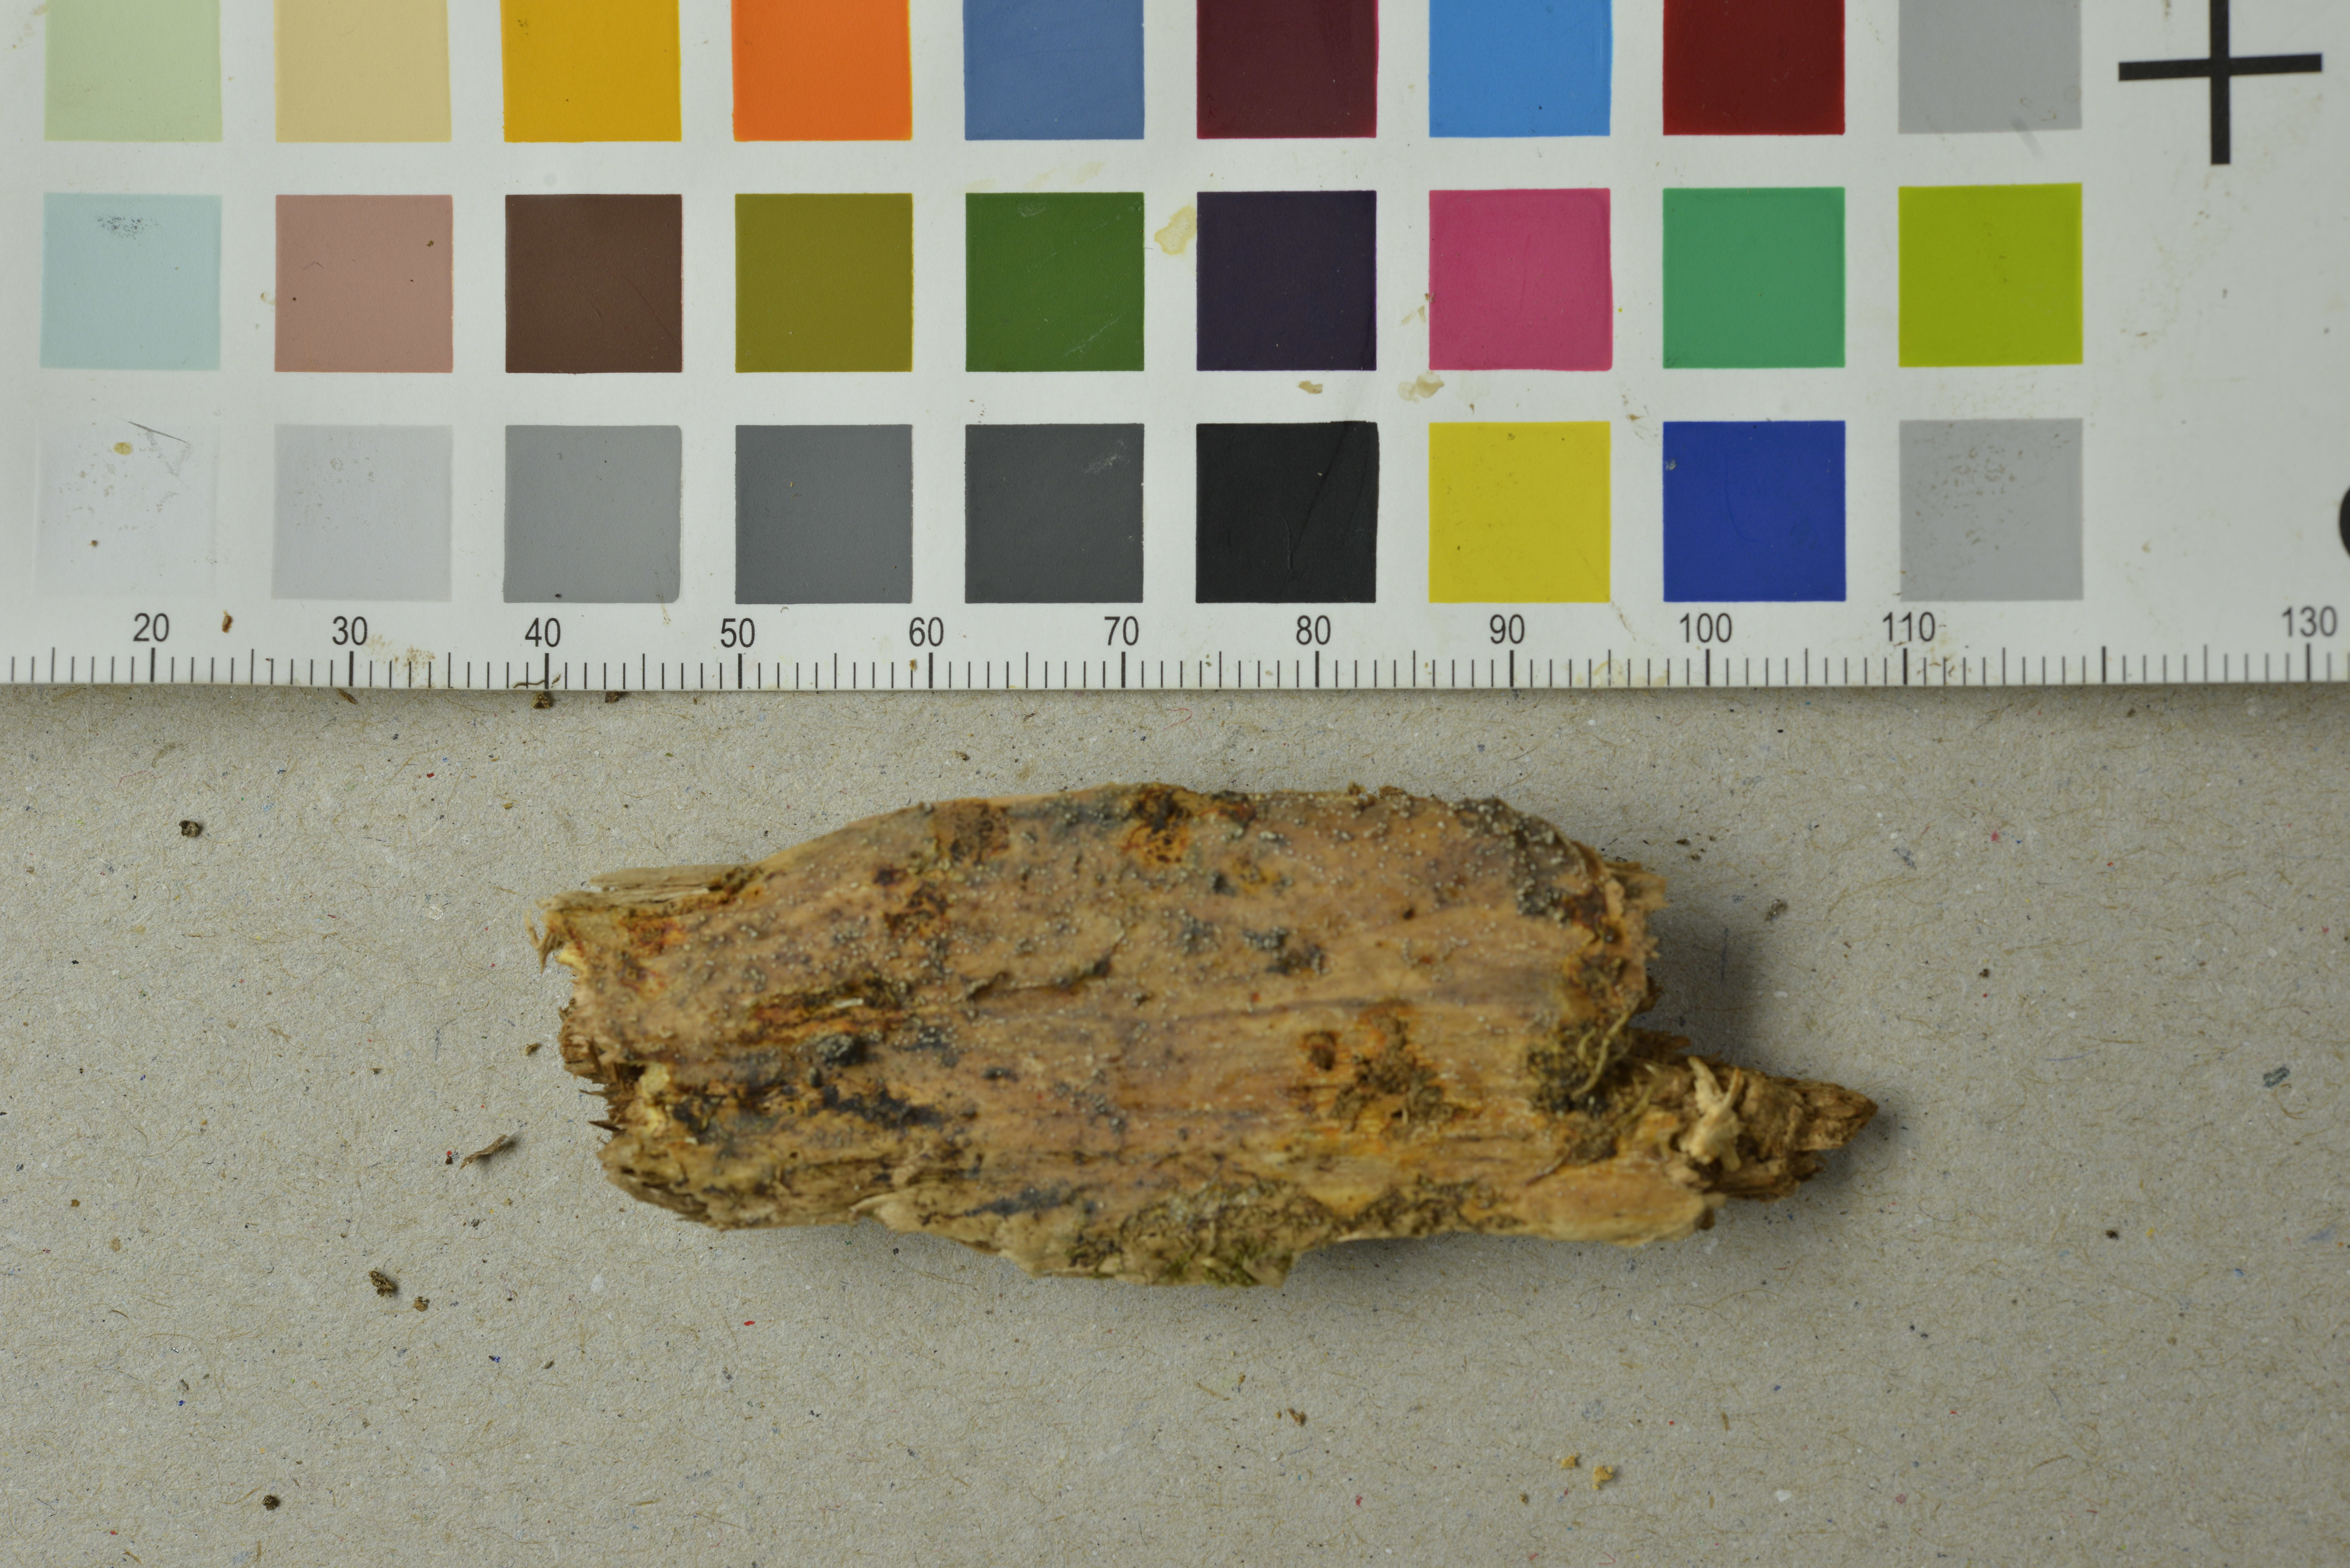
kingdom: Fungi
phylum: Basidiomycota
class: Agaricomycetes
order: Polyporales
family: Meruliaceae
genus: Mycoacia
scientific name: Mycoacia livida
